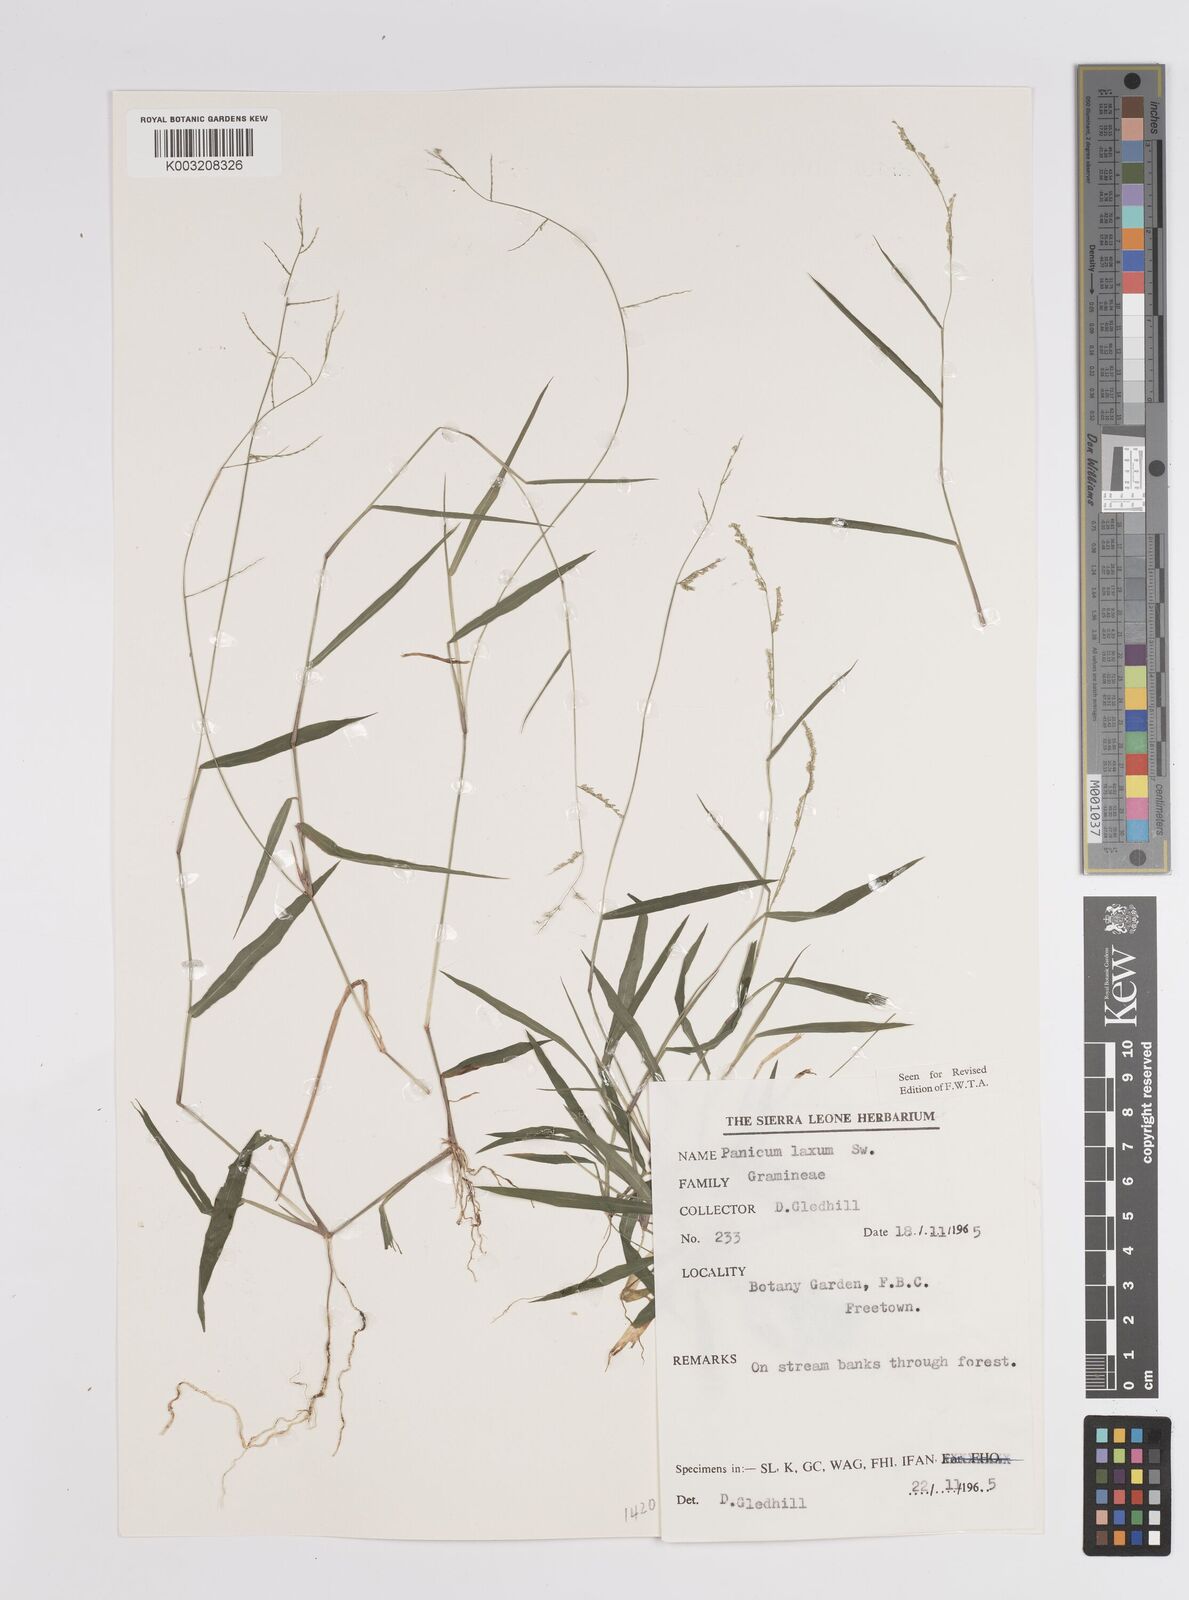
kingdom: Plantae
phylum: Tracheophyta
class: Liliopsida
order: Poales
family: Poaceae
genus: Steinchisma
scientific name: Steinchisma laxum
